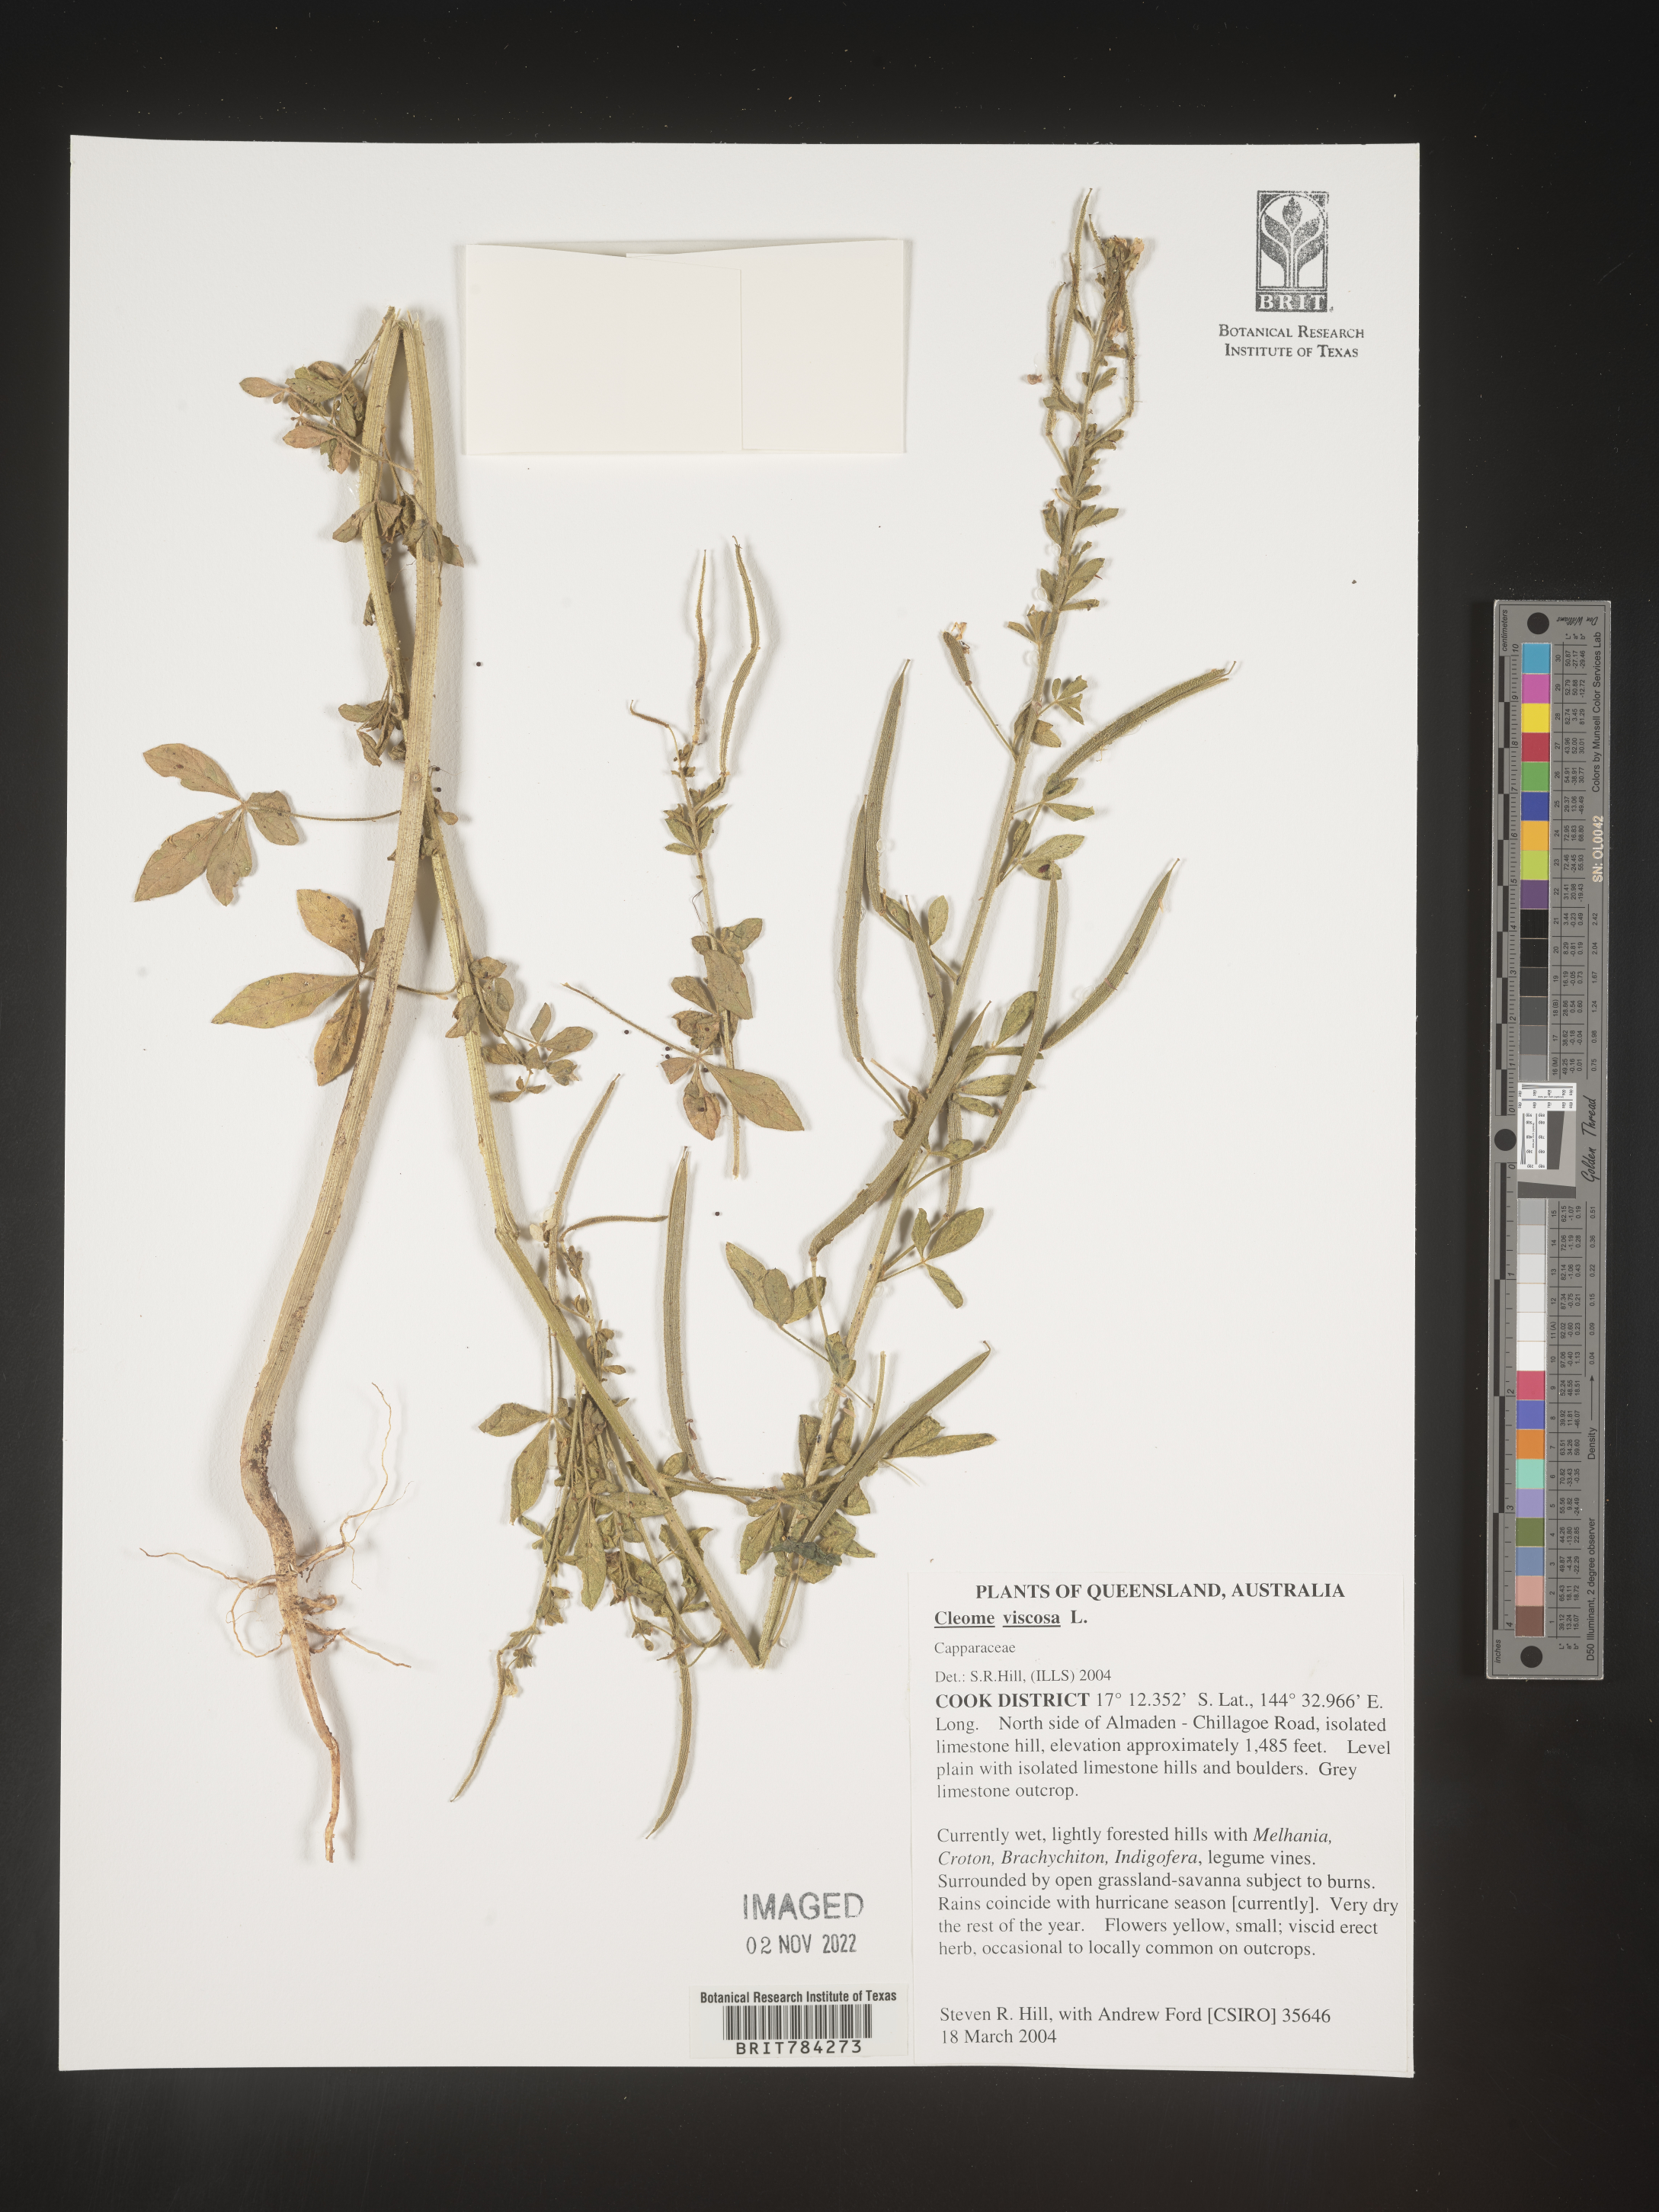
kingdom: Plantae
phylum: Tracheophyta
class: Magnoliopsida
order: Brassicales
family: Cleomaceae
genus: Cleome
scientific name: Cleome
